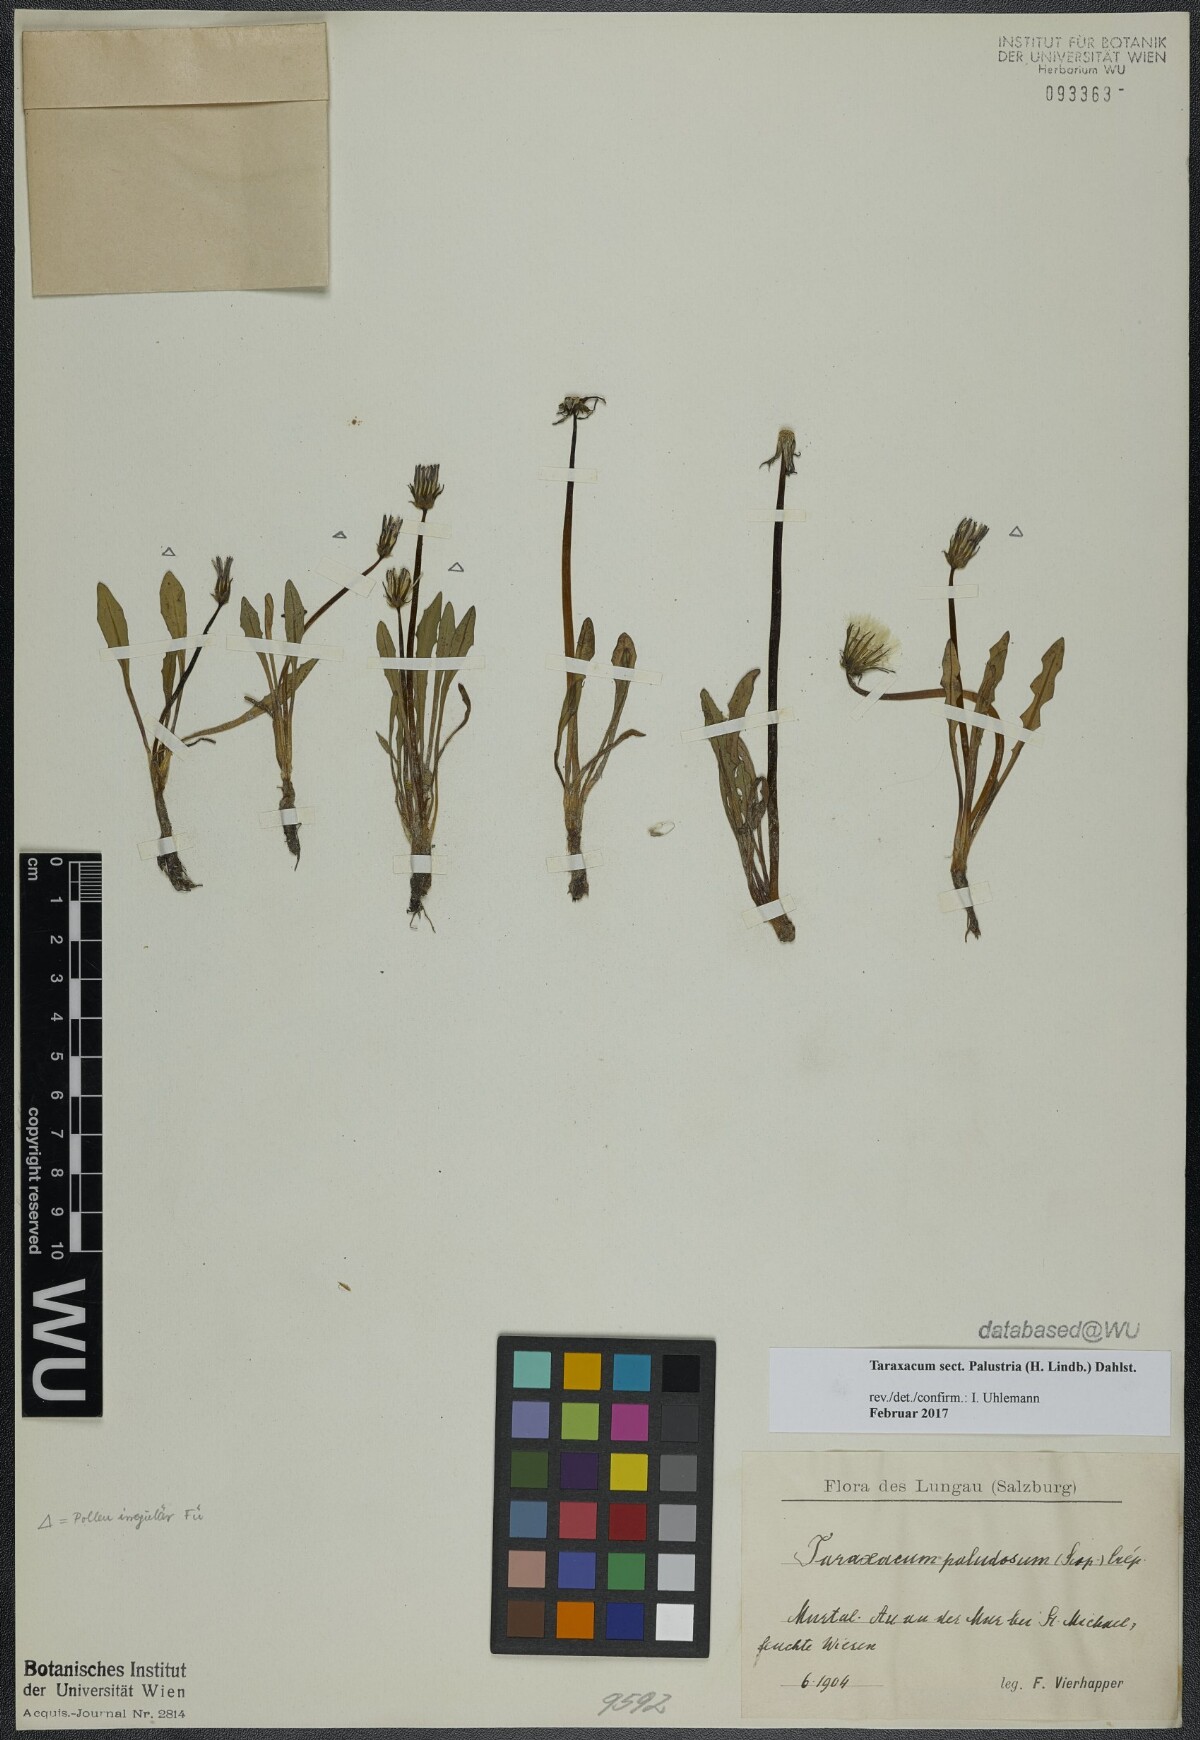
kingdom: Plantae
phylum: Tracheophyta
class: Magnoliopsida
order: Asterales
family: Asteraceae
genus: Taraxacum
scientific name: Taraxacum
